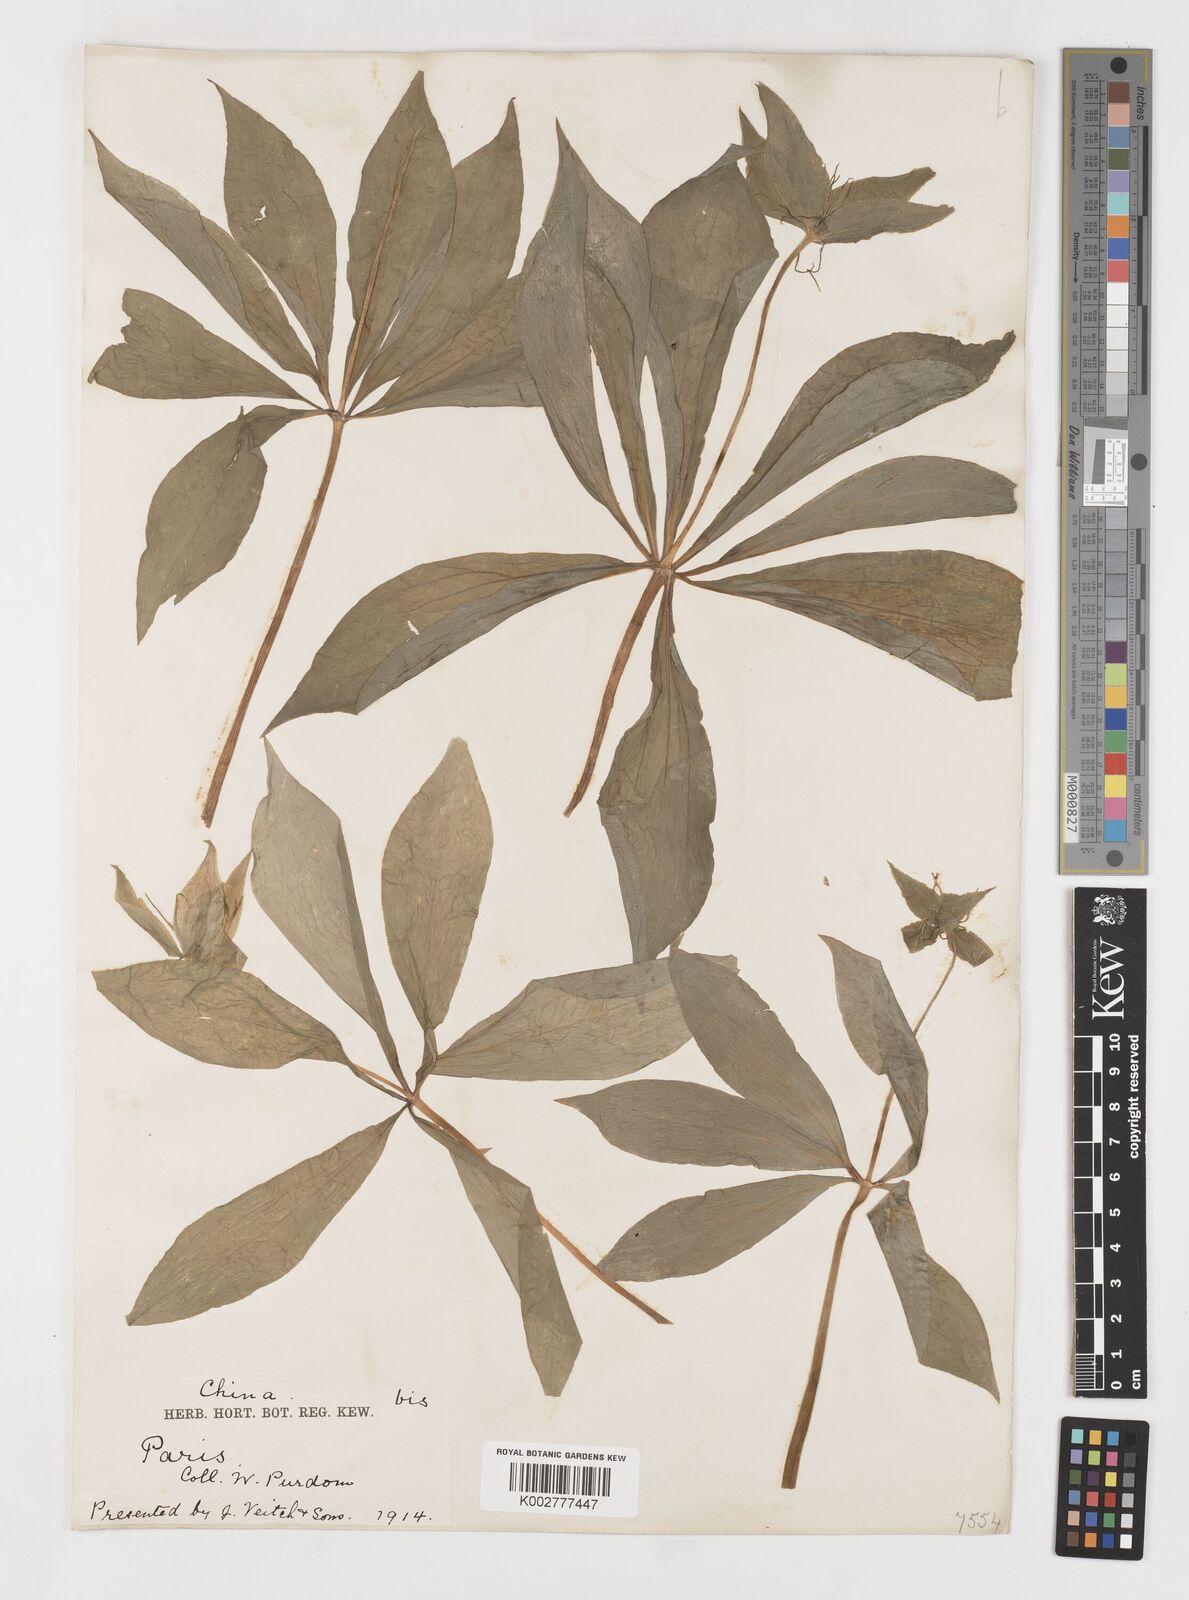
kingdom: Plantae
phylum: Tracheophyta
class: Liliopsida
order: Liliales
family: Melanthiaceae
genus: Paris
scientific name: Paris polyphylla
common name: Love apple
